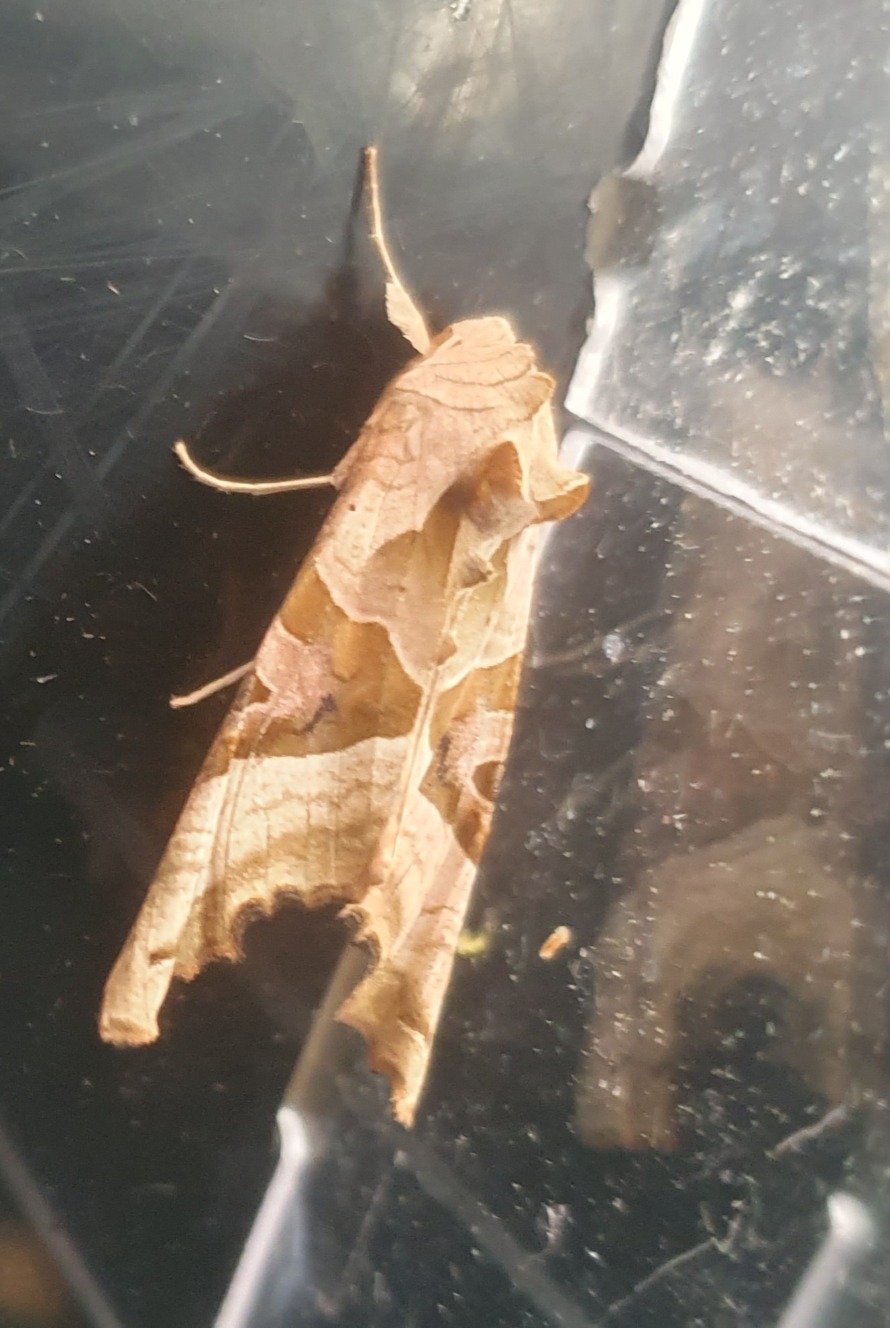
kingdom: Animalia
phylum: Arthropoda
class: Insecta
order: Lepidoptera
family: Noctuidae
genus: Phlogophora
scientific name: Phlogophora meticulosa
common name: Agatugle
